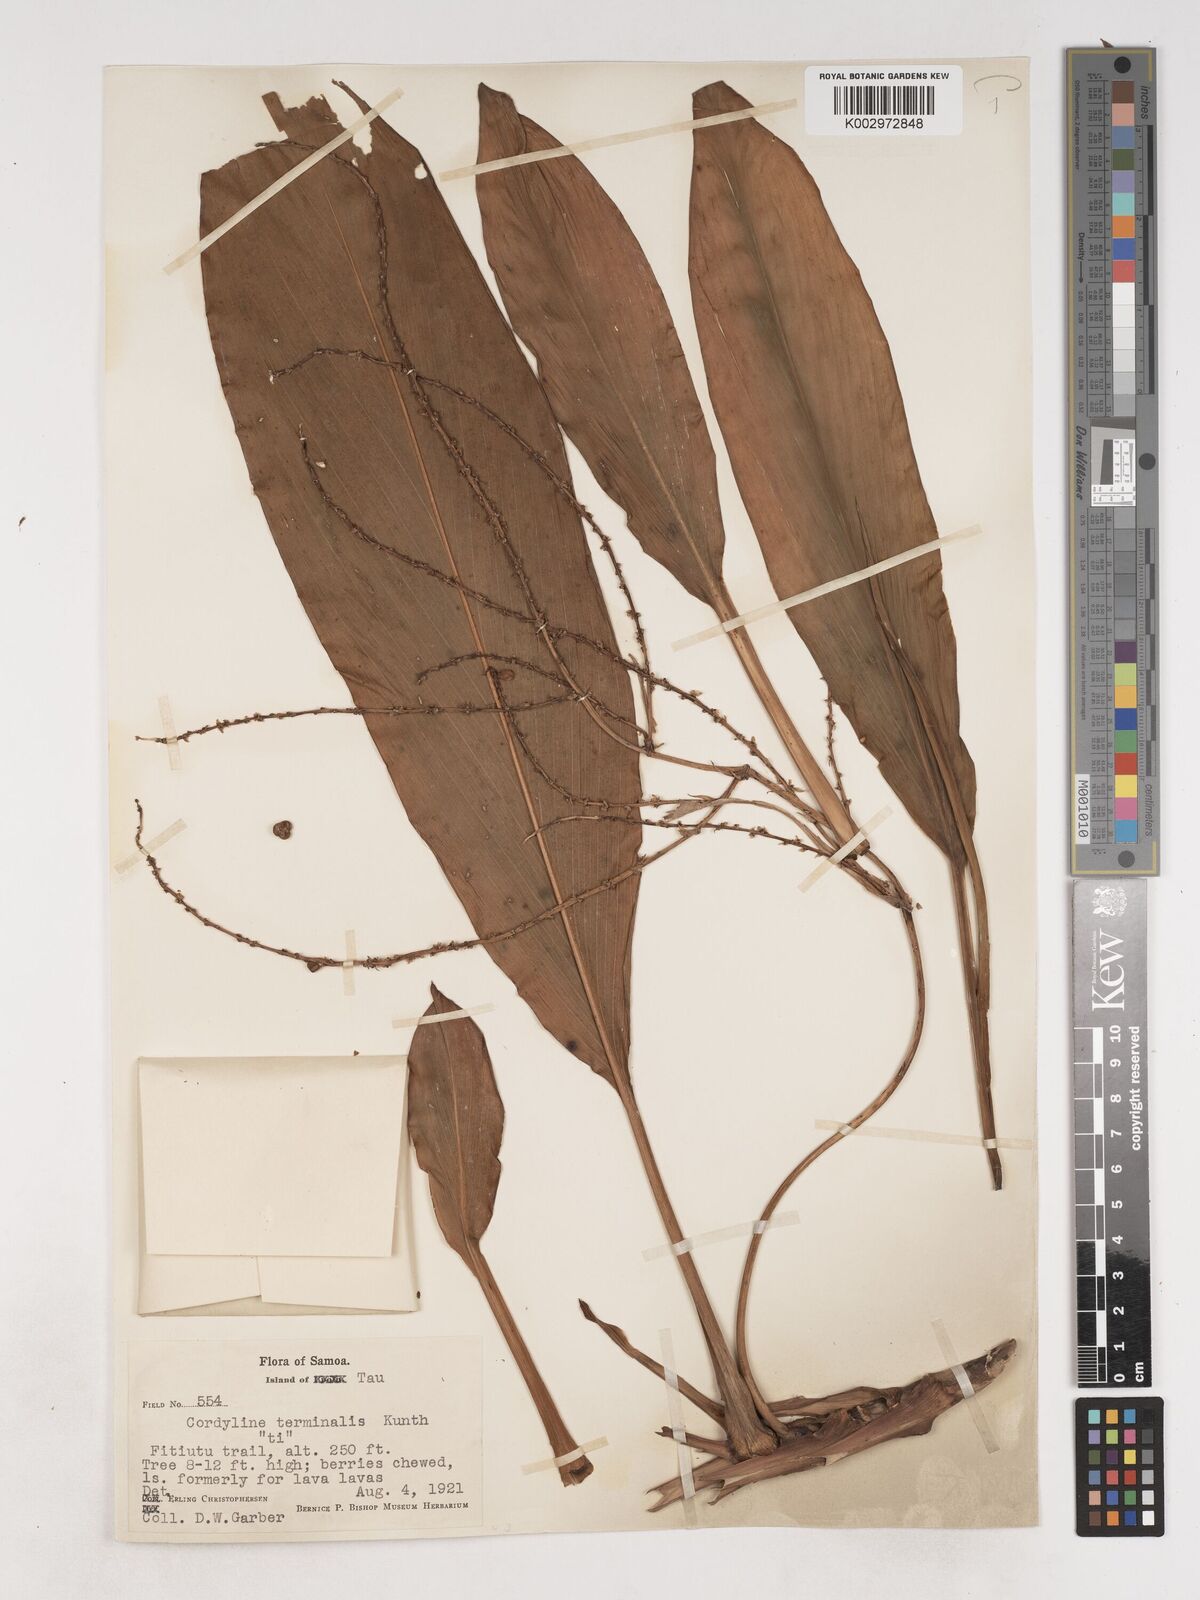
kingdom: Plantae
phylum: Tracheophyta
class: Liliopsida
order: Asparagales
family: Asparagaceae
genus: Cordyline
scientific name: Cordyline fruticosa
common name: Good-luck-plant
